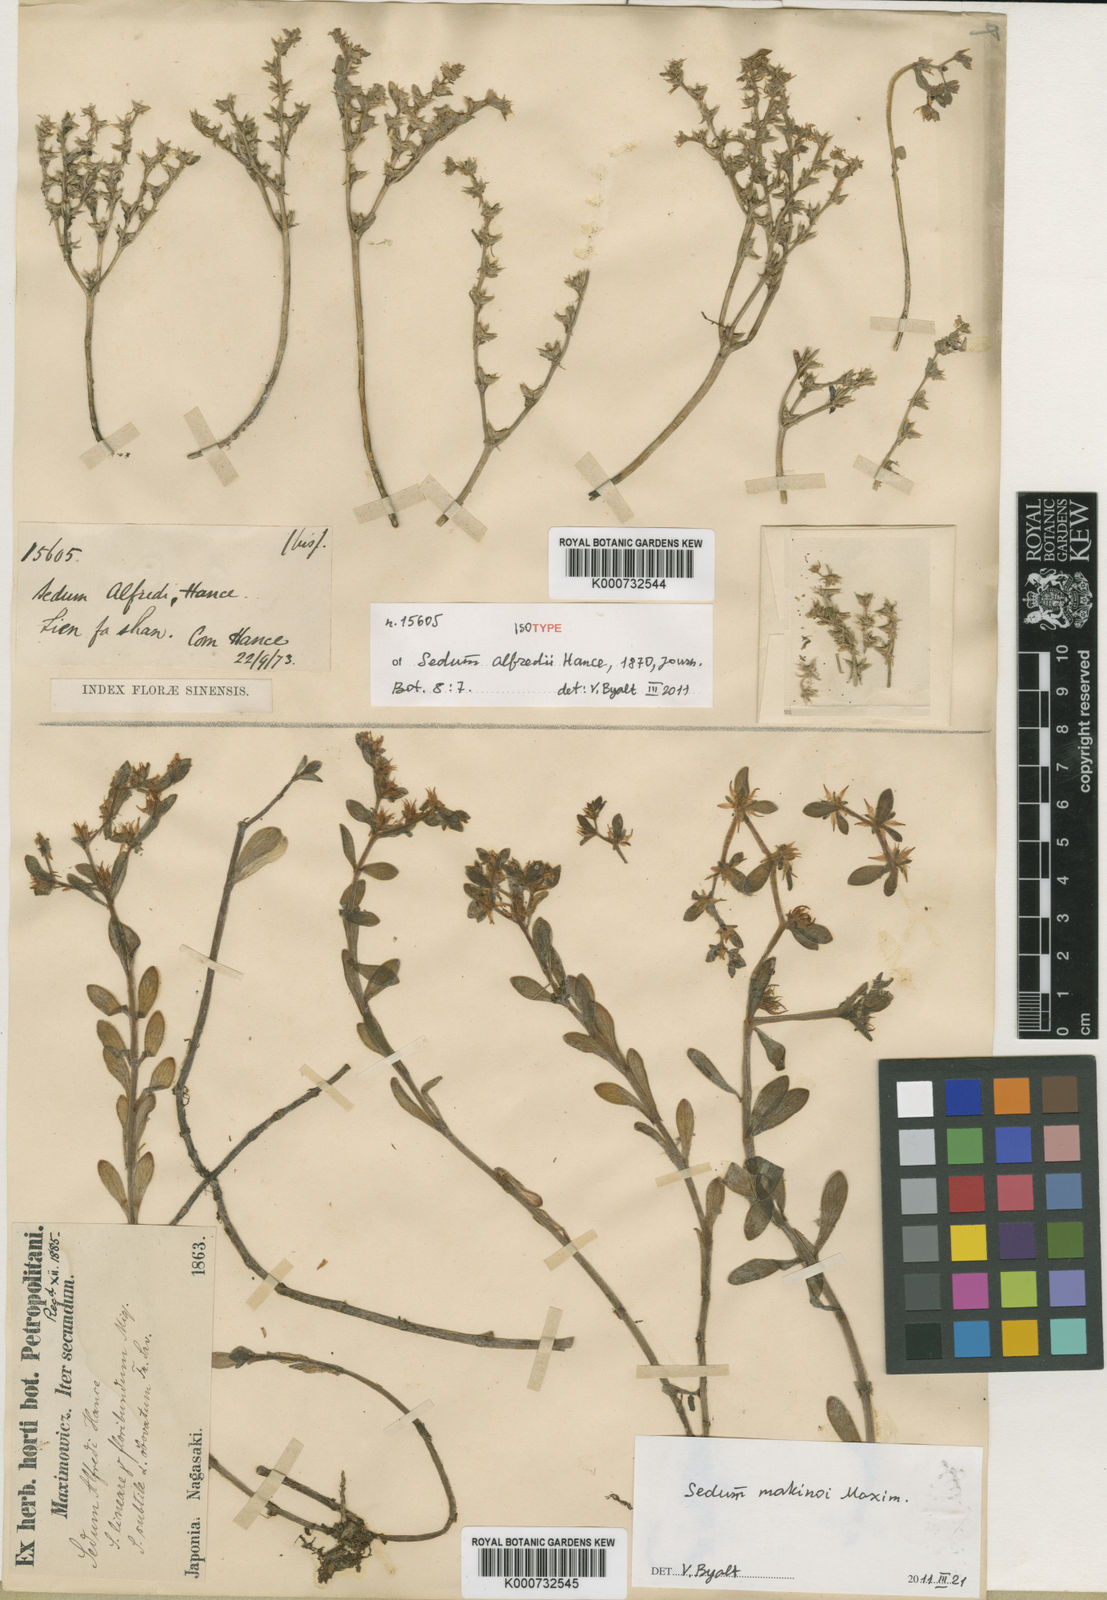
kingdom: Plantae
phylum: Tracheophyta
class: Magnoliopsida
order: Saxifragales
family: Crassulaceae
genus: Sedum
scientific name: Sedum alfredi
